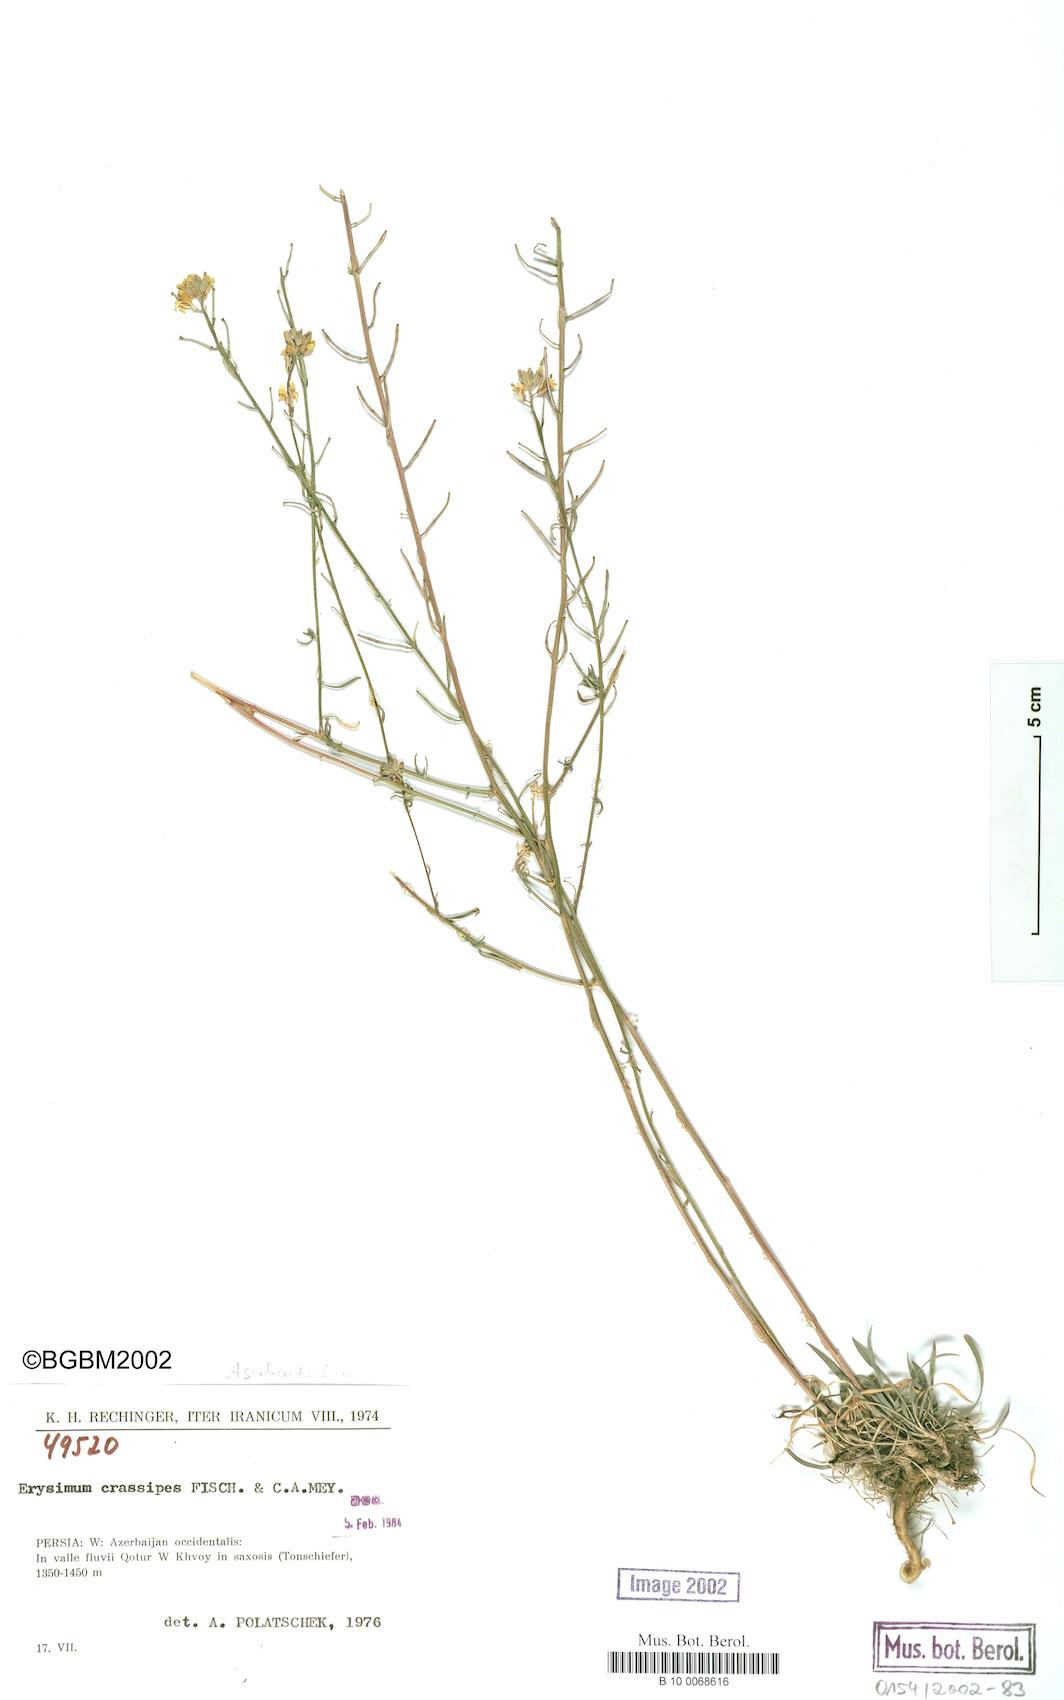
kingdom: Plantae
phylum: Tracheophyta
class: Magnoliopsida
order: Brassicales
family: Brassicaceae
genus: Erysimum
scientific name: Erysimum crassipes
